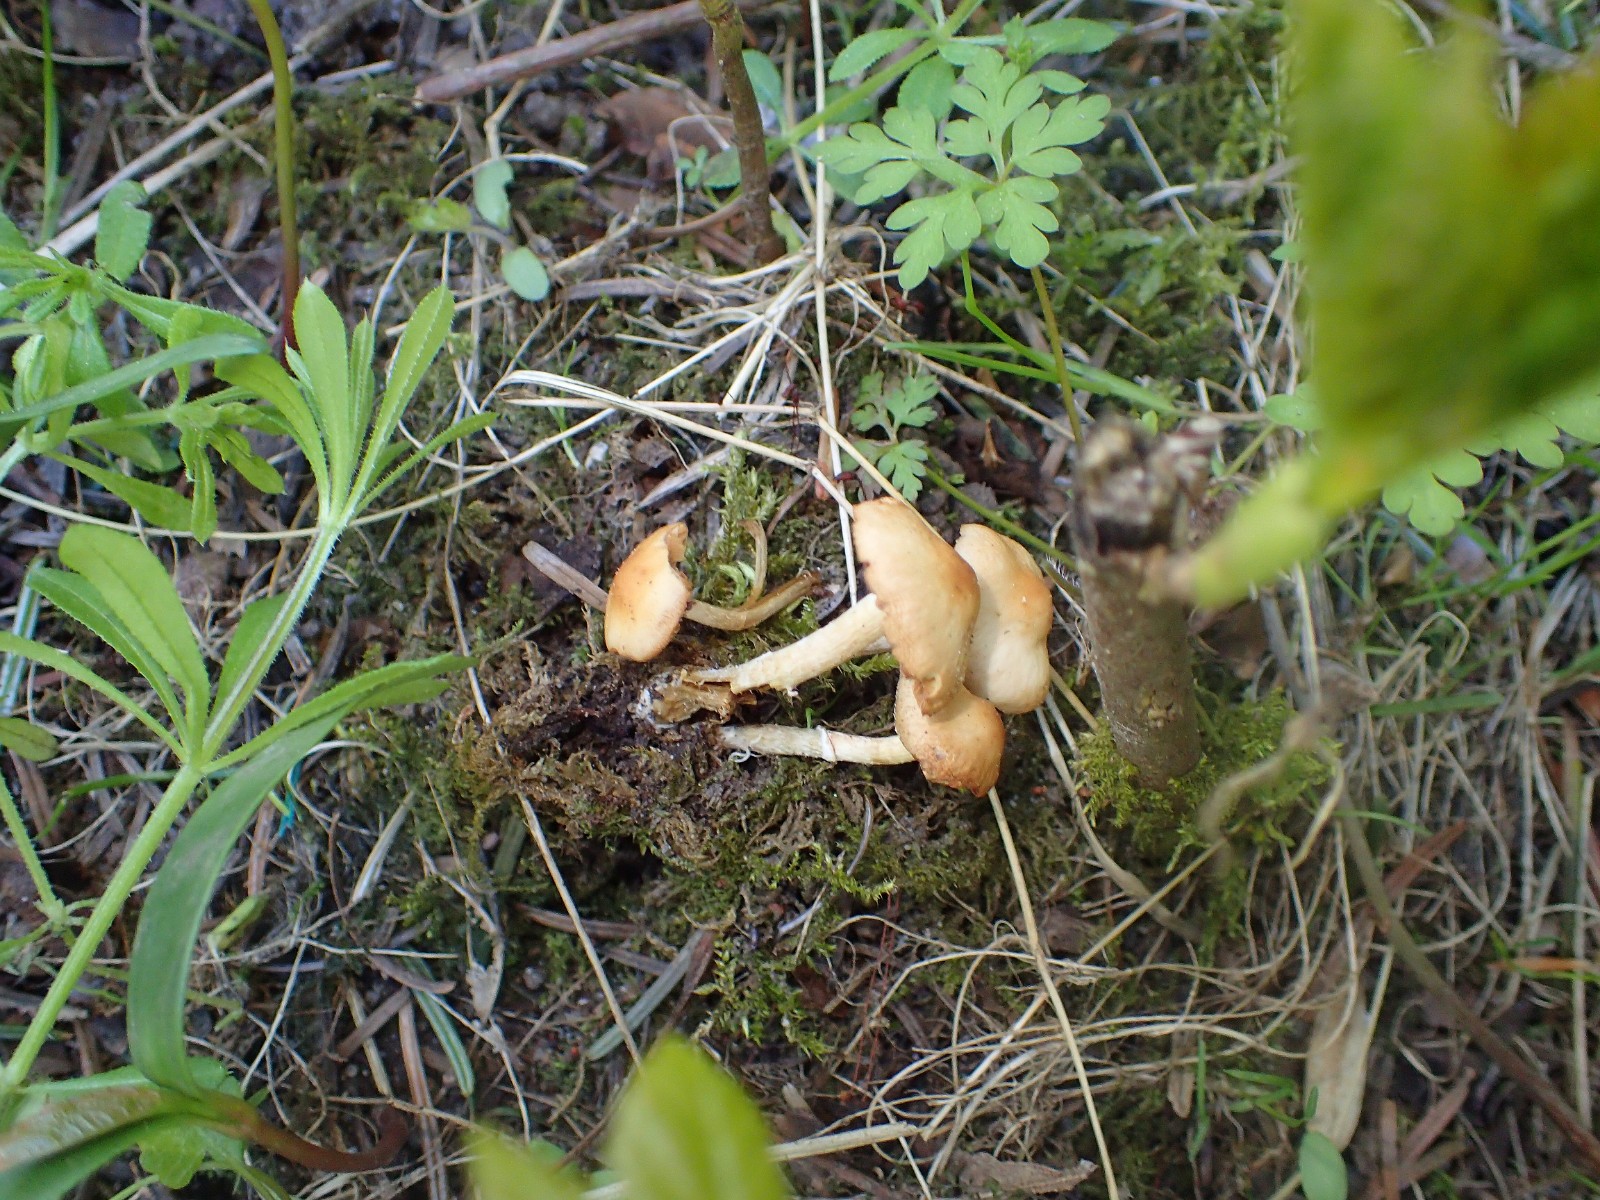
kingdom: Fungi
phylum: Basidiomycota
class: Agaricomycetes
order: Agaricales
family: Bolbitiaceae
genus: Conocybe
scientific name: Conocybe aporos
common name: tidlig dansehat
